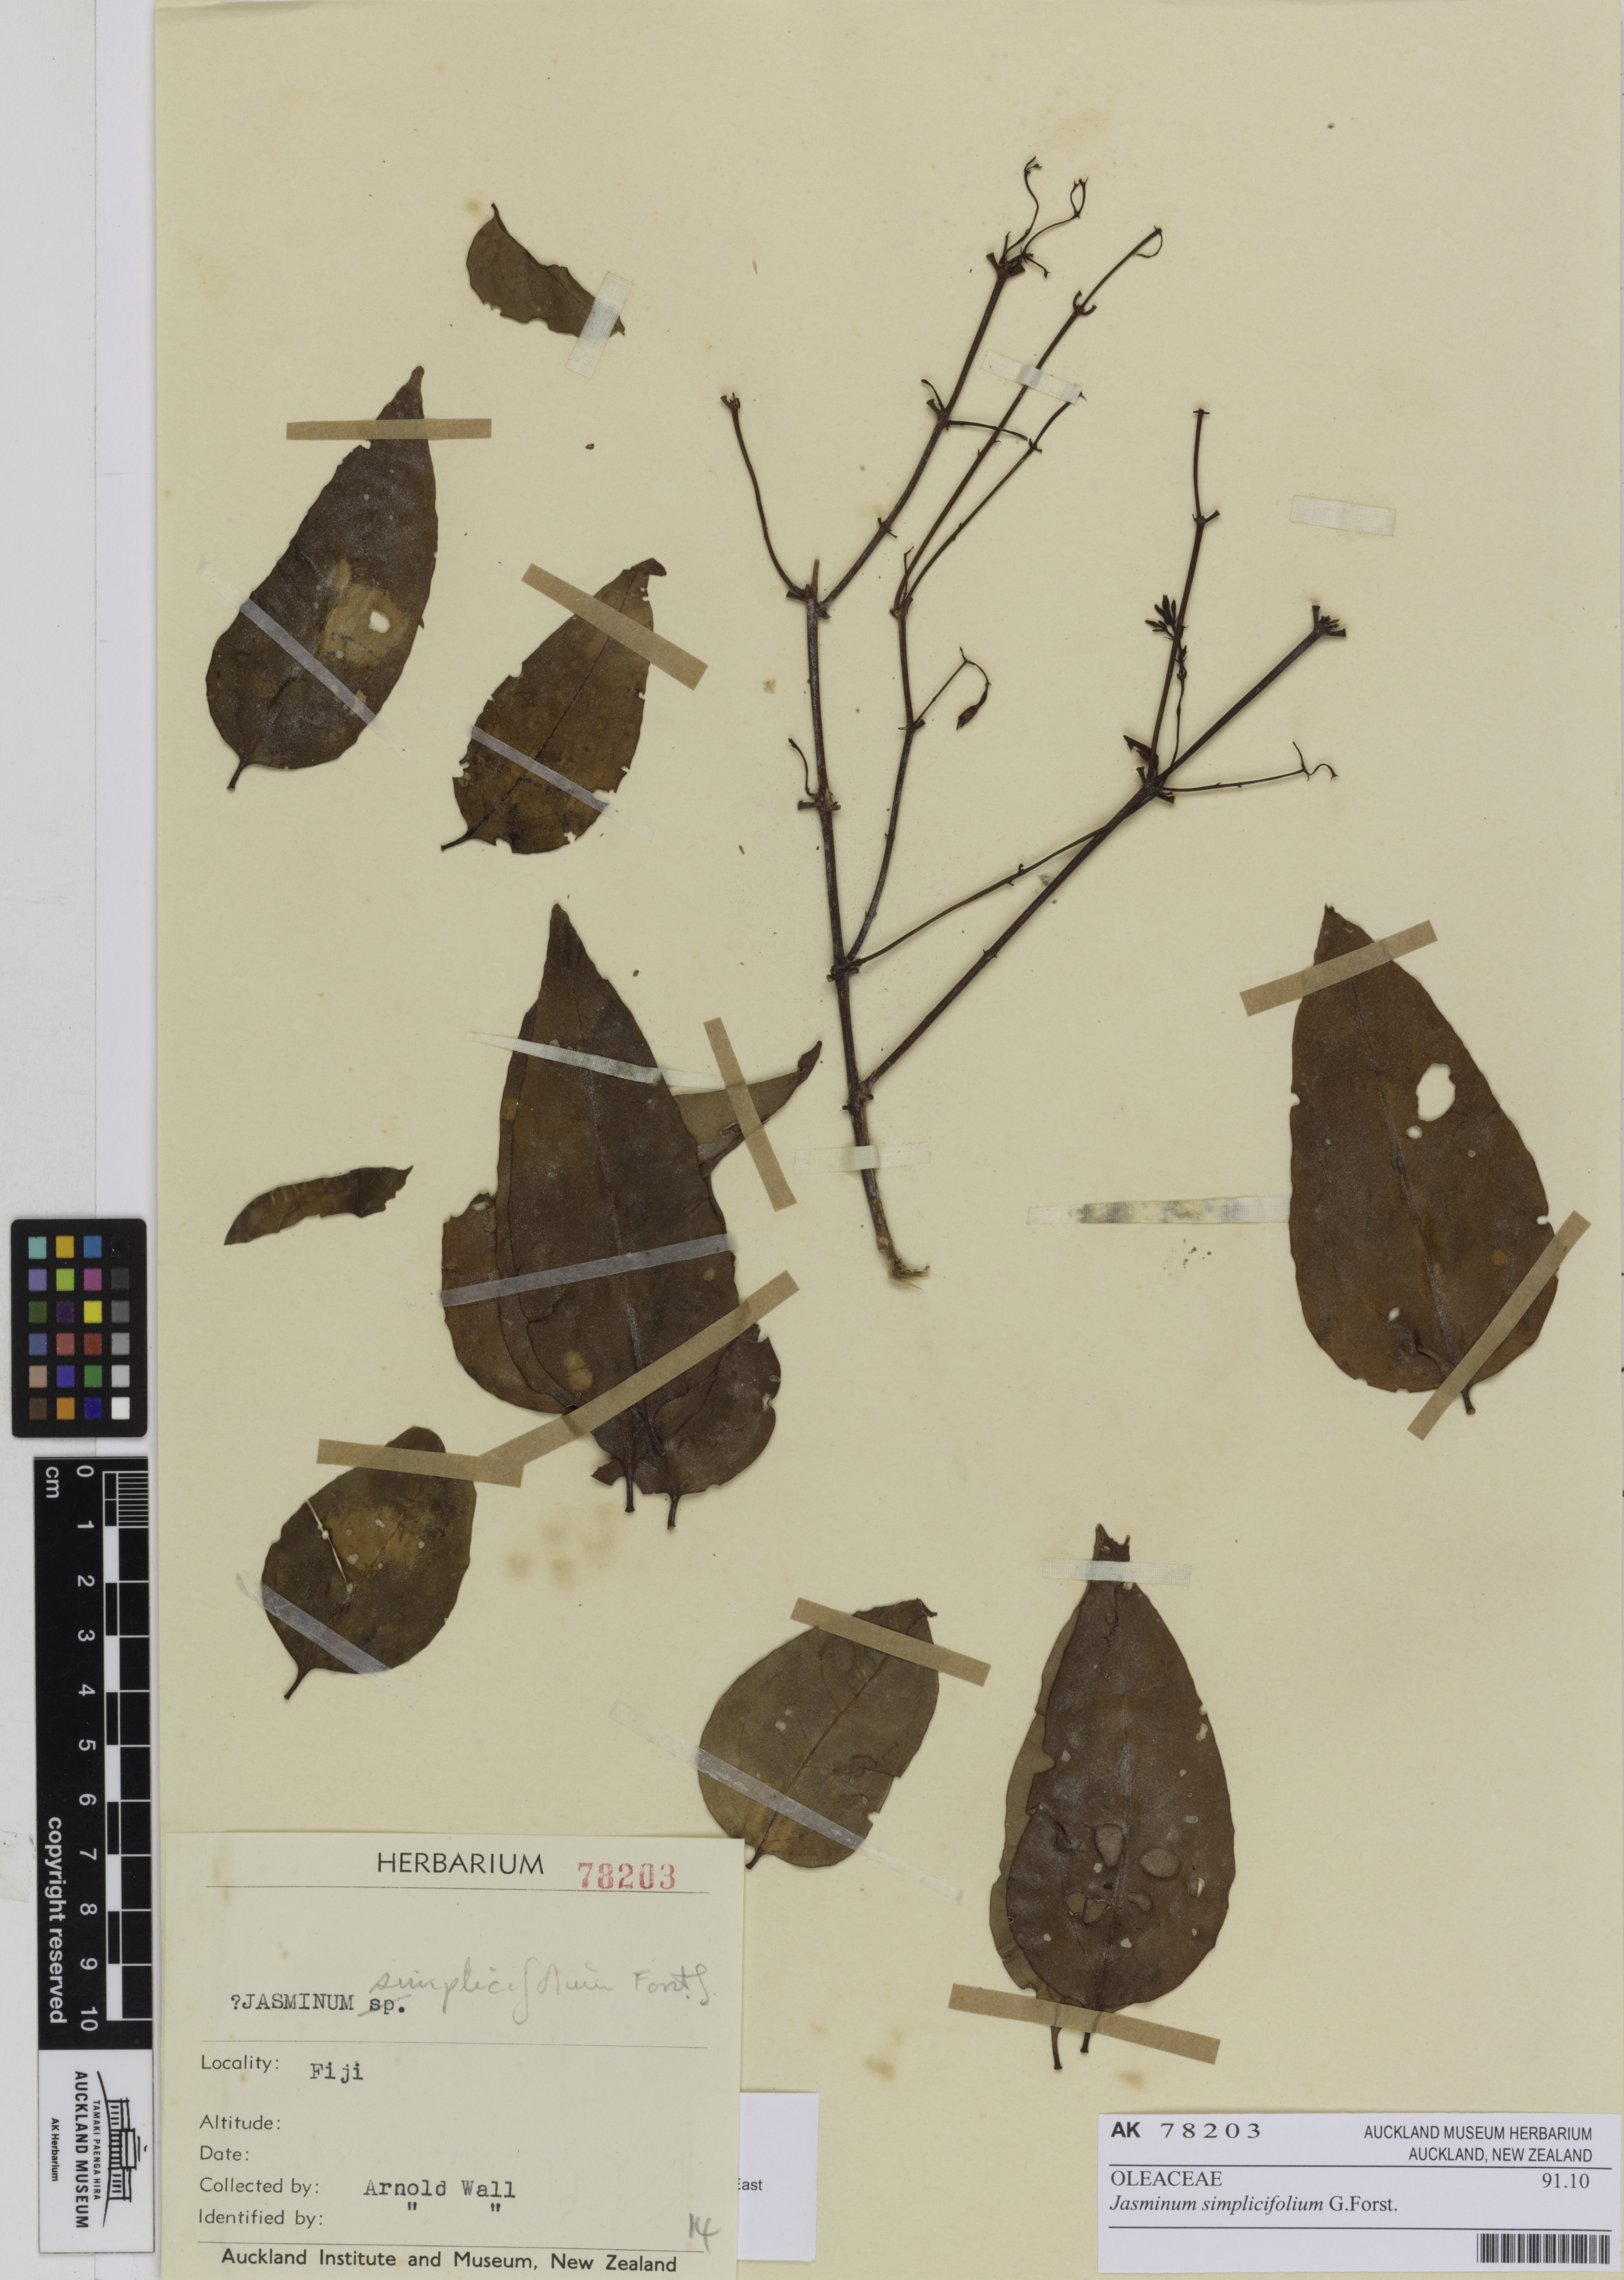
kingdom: Plantae
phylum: Tracheophyta
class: Magnoliopsida
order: Lamiales
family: Oleaceae
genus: Jasminum
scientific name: Jasminum simplicifolium
